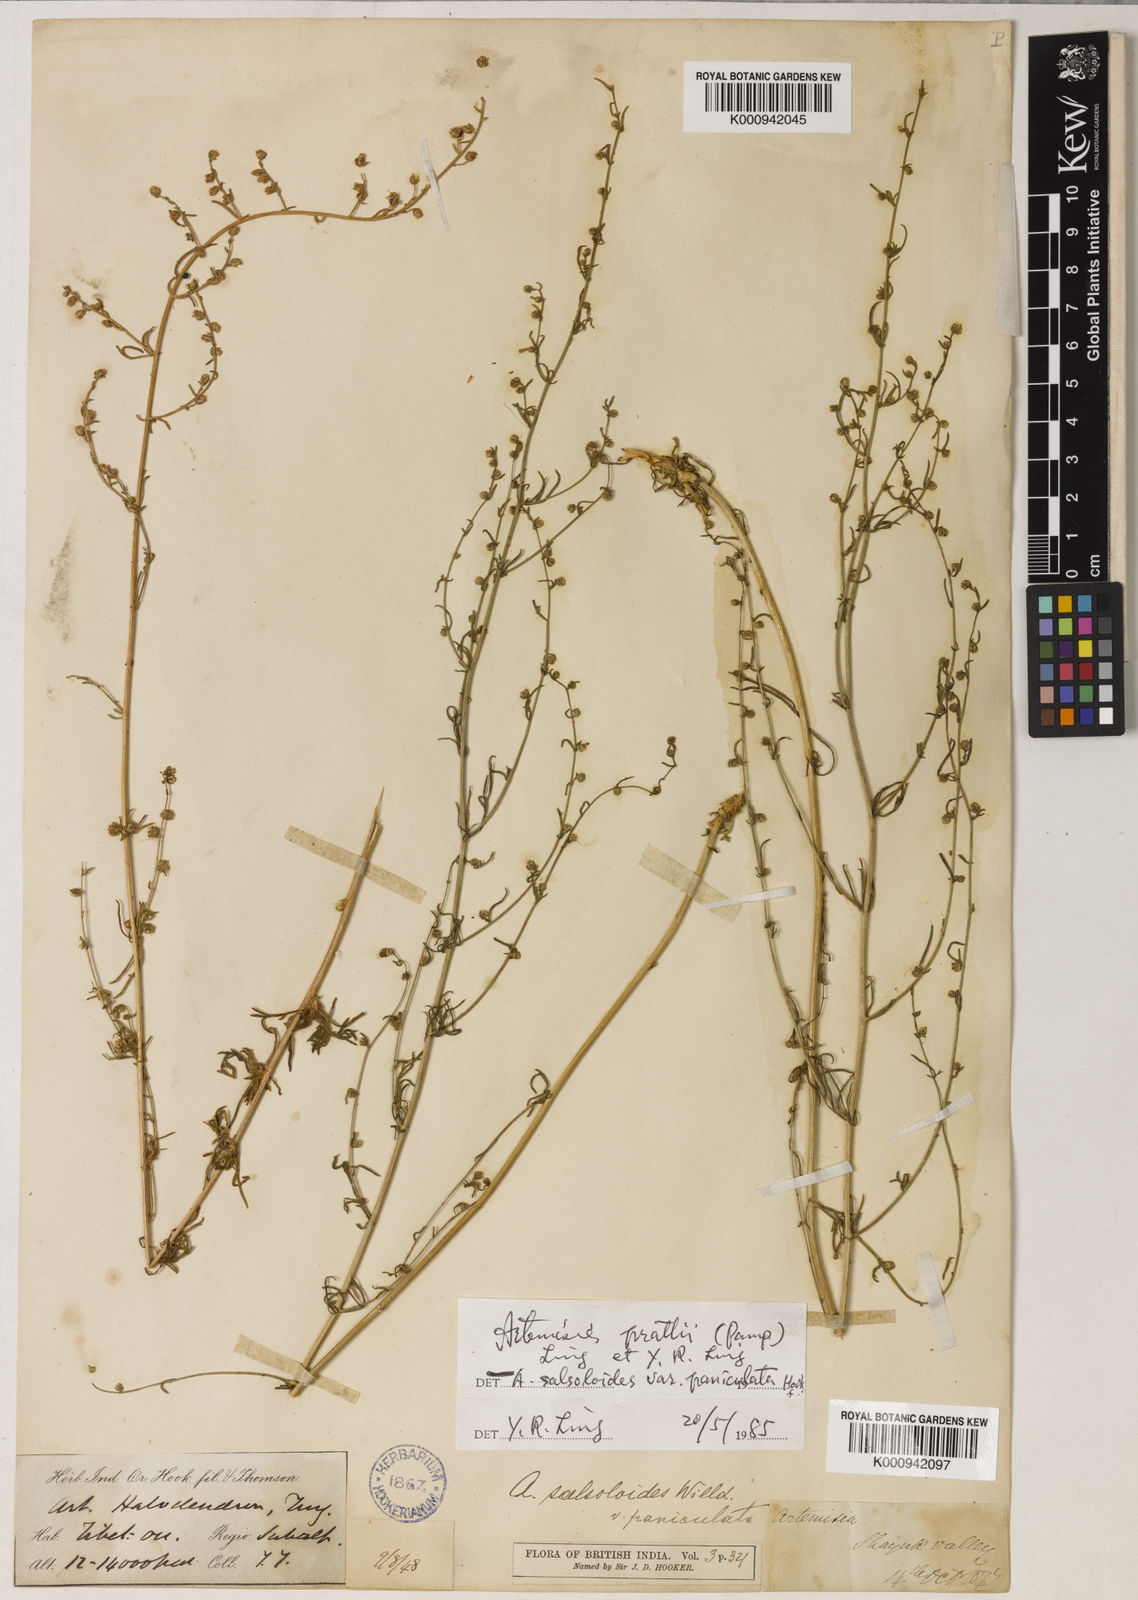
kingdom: Plantae
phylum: Tracheophyta
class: Magnoliopsida
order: Asterales
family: Asteraceae
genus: Artemisia
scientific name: Artemisia prattii
